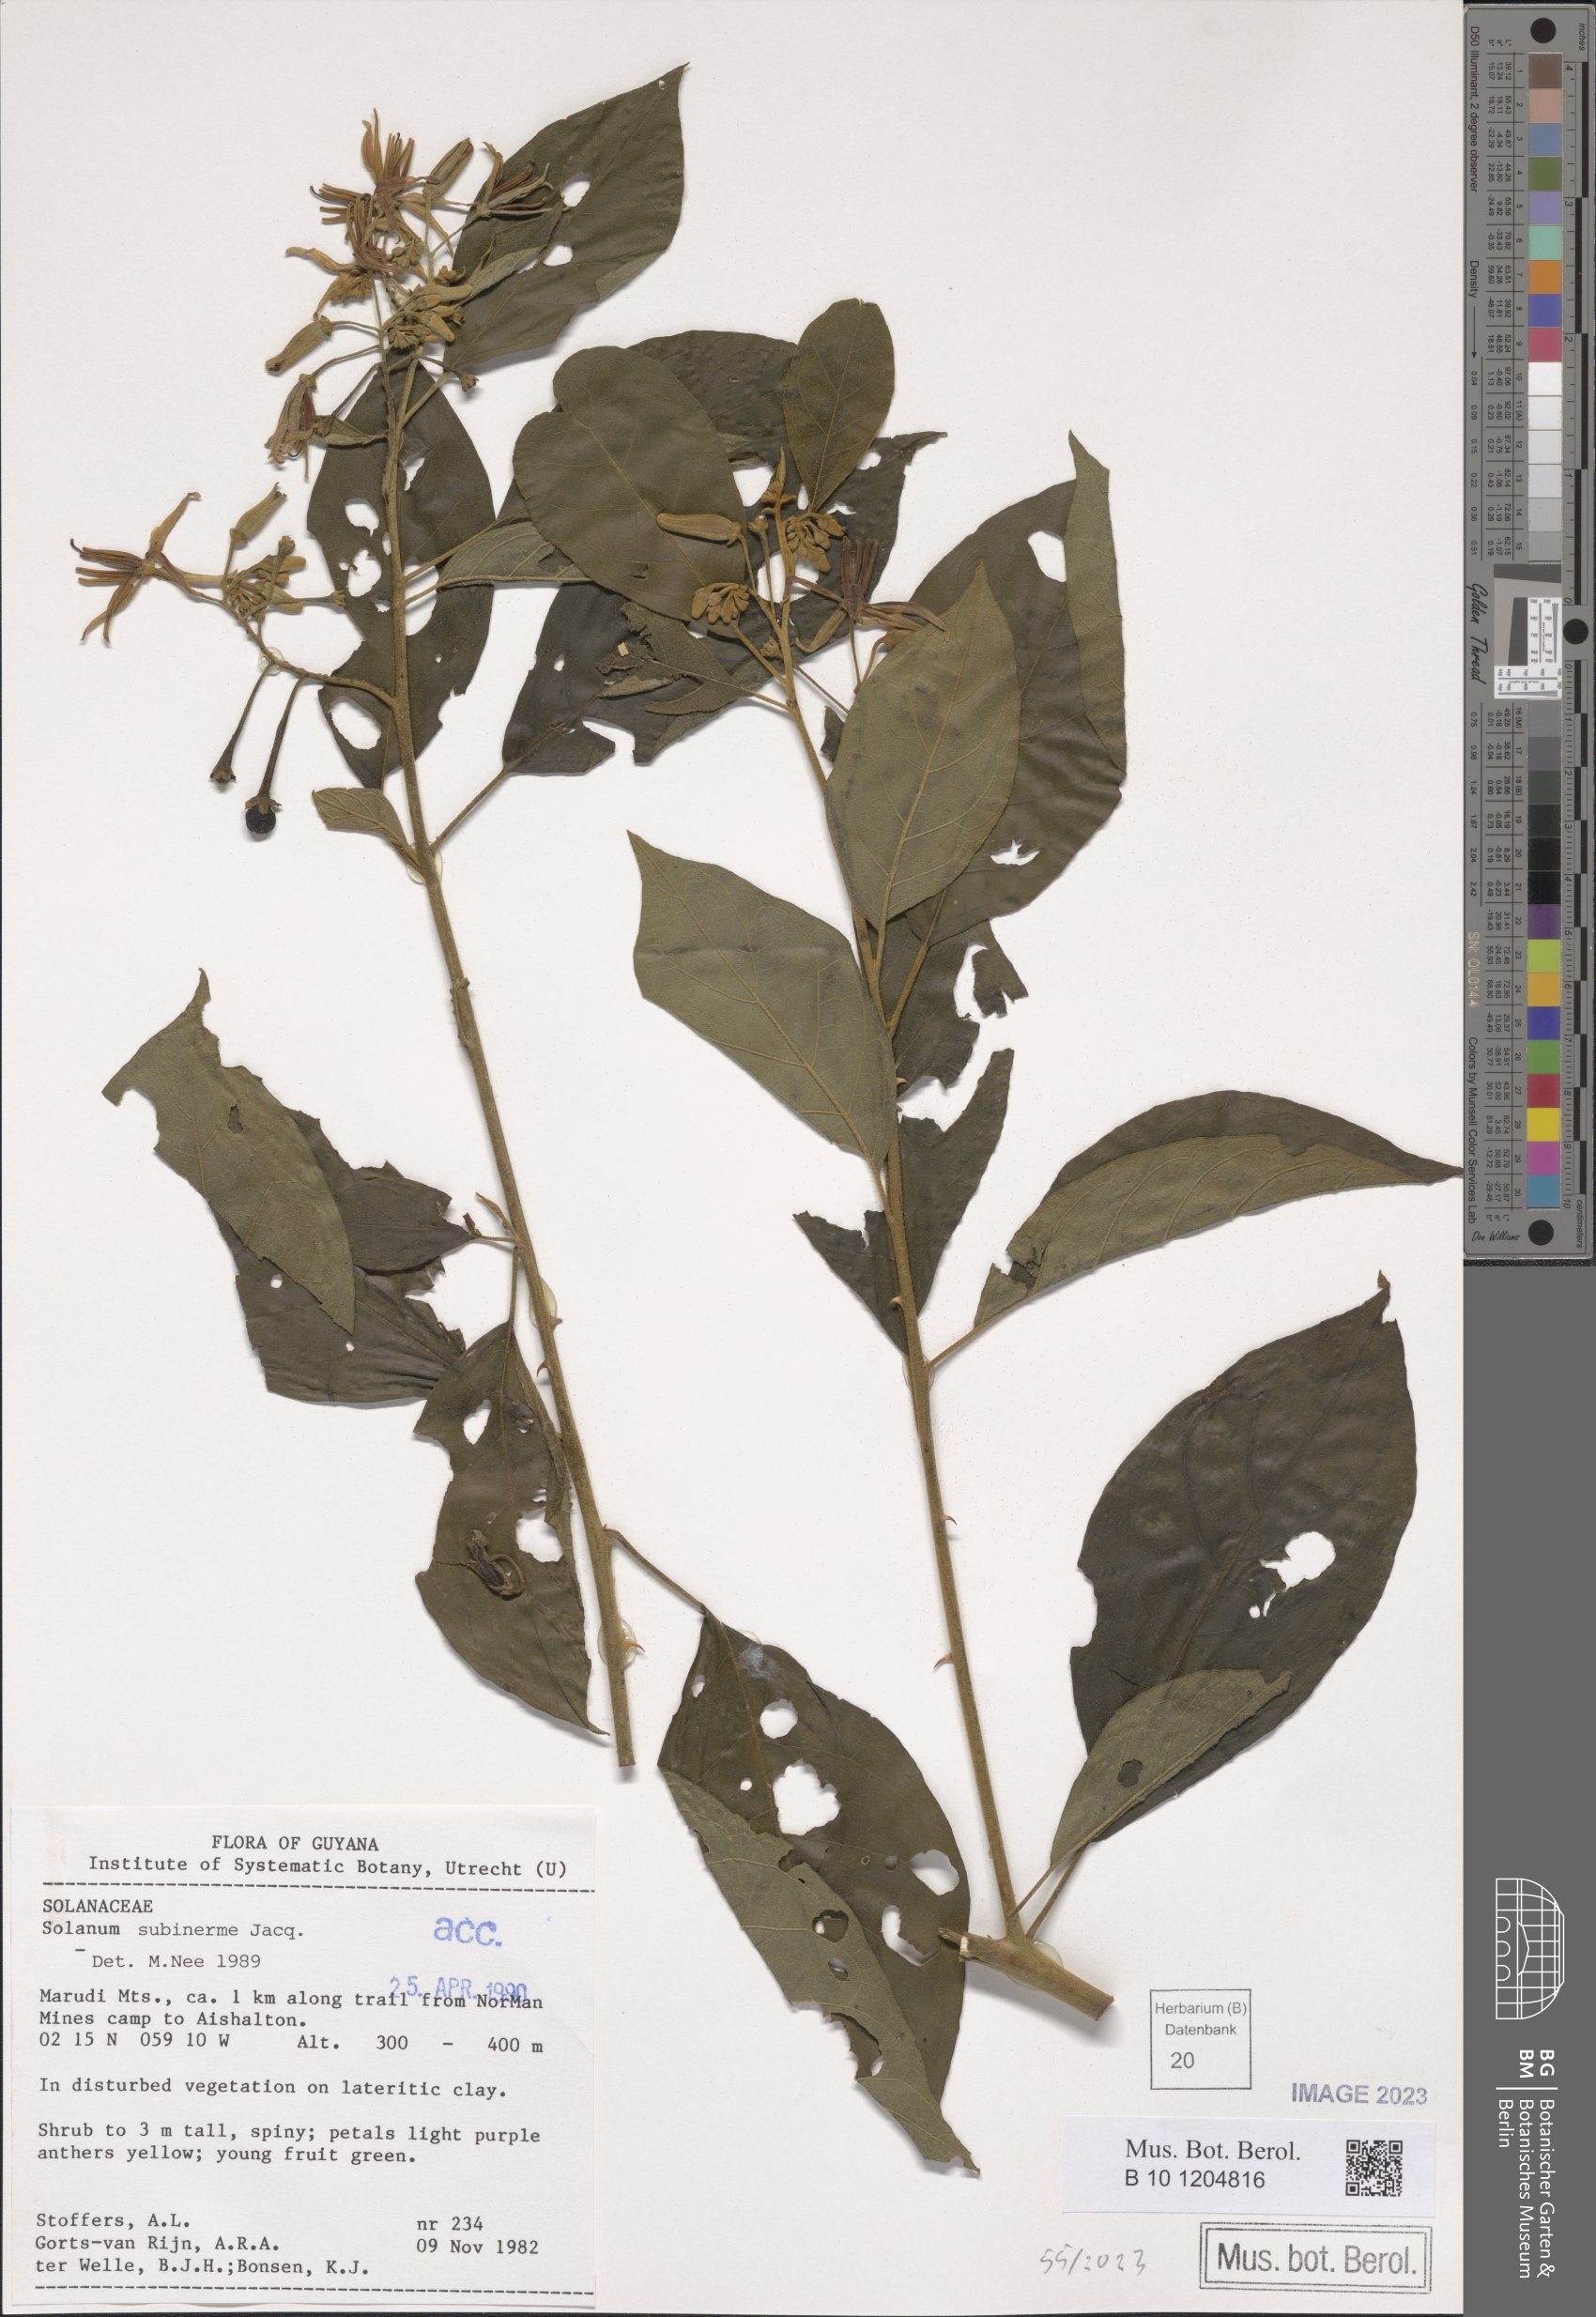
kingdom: Plantae
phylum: Tracheophyta
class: Magnoliopsida
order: Solanales
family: Solanaceae
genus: Solanum
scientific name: Solanum subinerme
